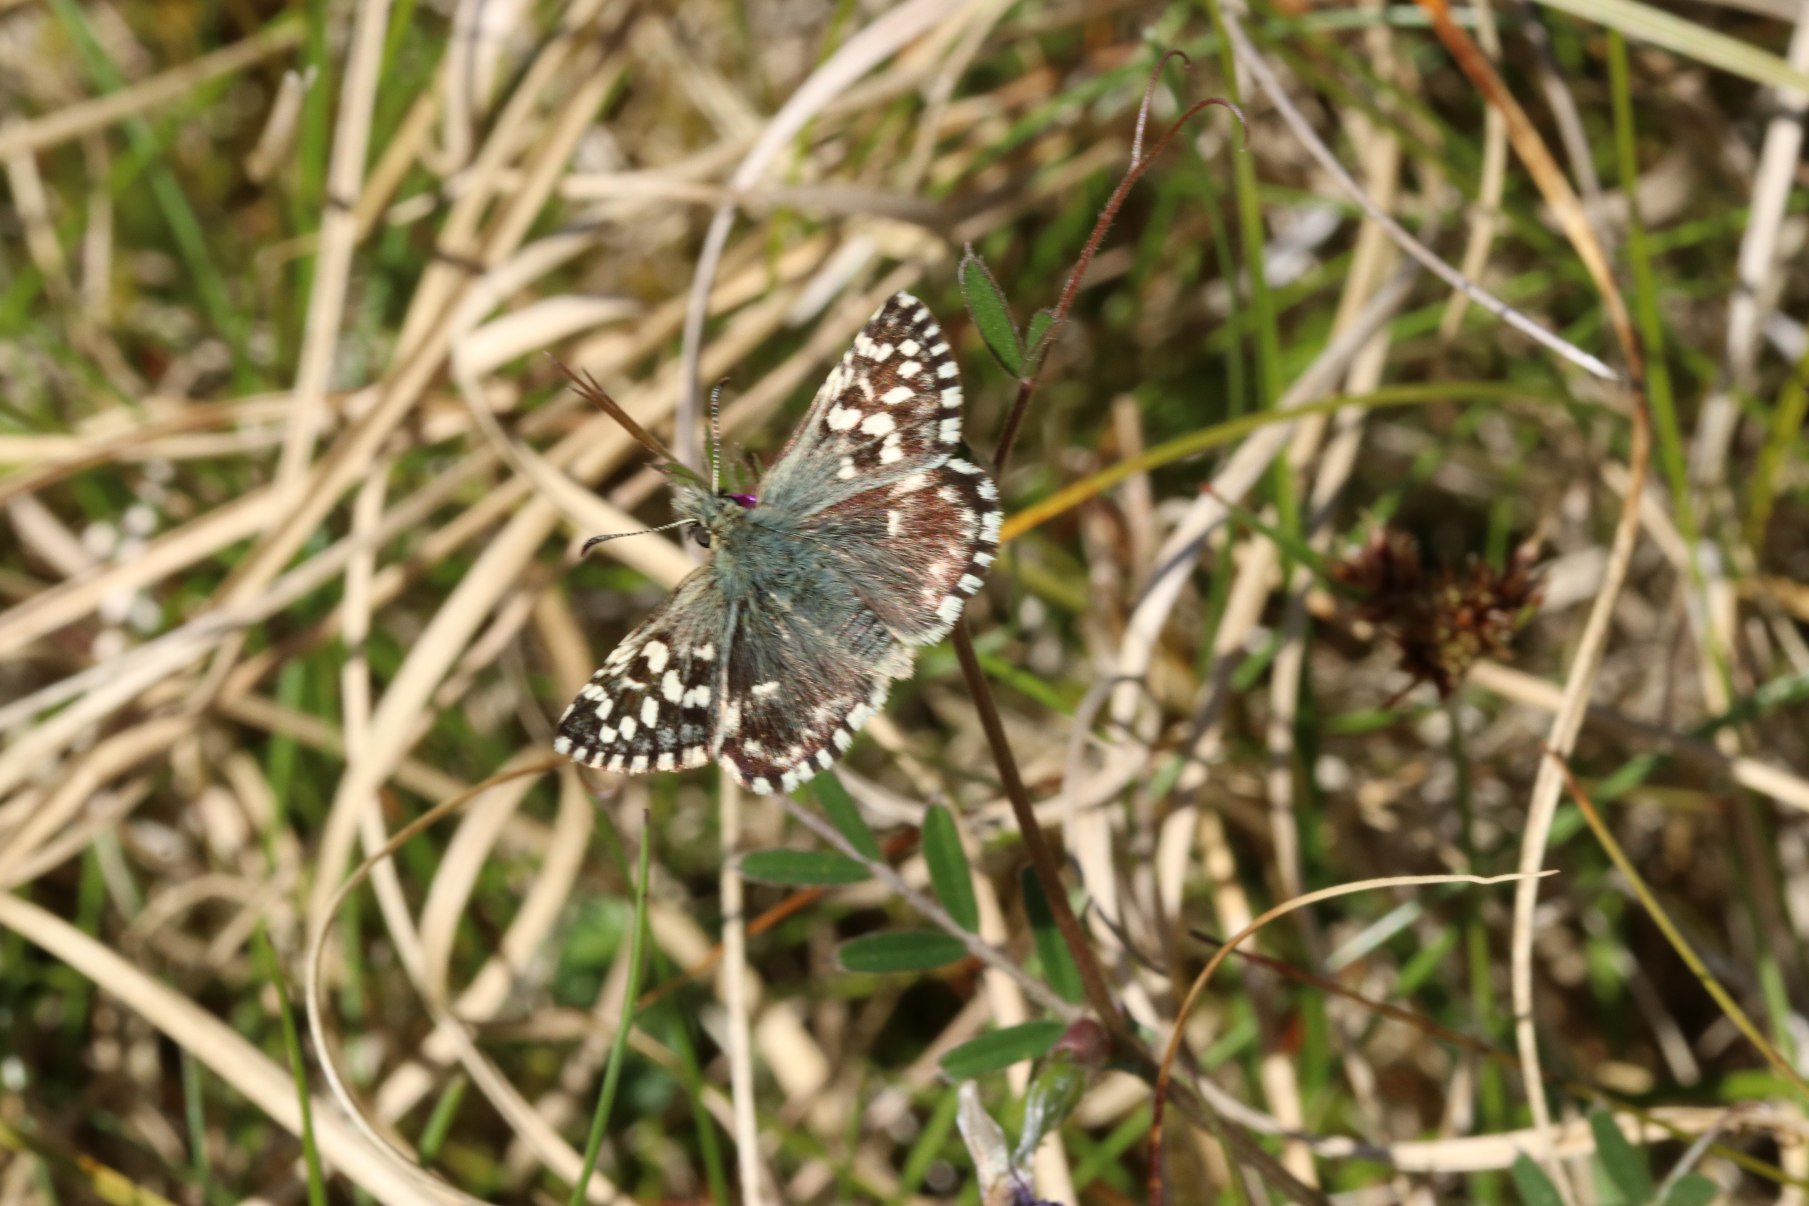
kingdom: Animalia
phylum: Arthropoda
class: Insecta
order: Lepidoptera
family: Hesperiidae
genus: Pyrgus
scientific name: Pyrgus malvae
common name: Spættet bredpande
